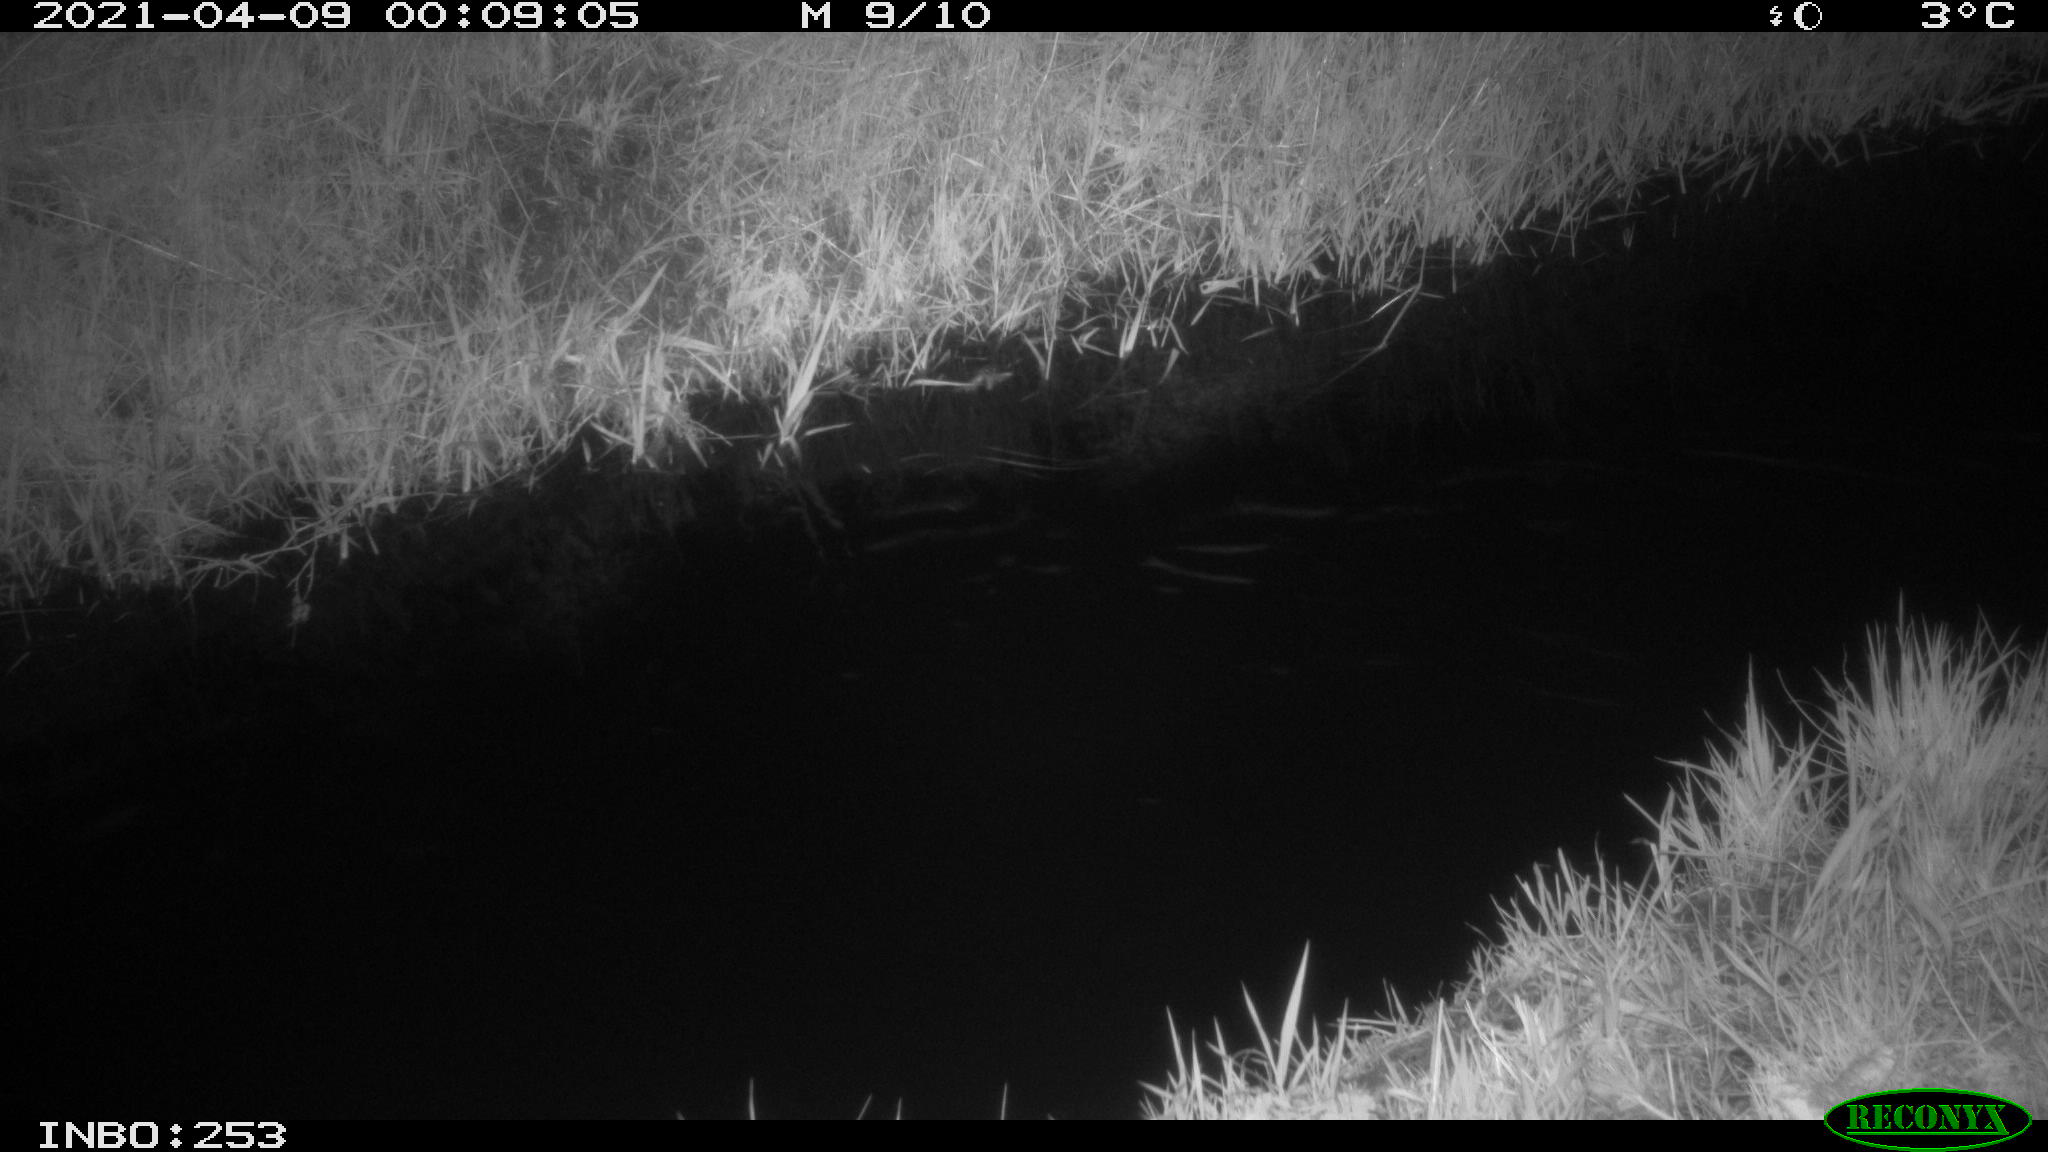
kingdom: Animalia
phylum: Chordata
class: Aves
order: Anseriformes
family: Anatidae
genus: Anas
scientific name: Anas platyrhynchos
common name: Mallard
